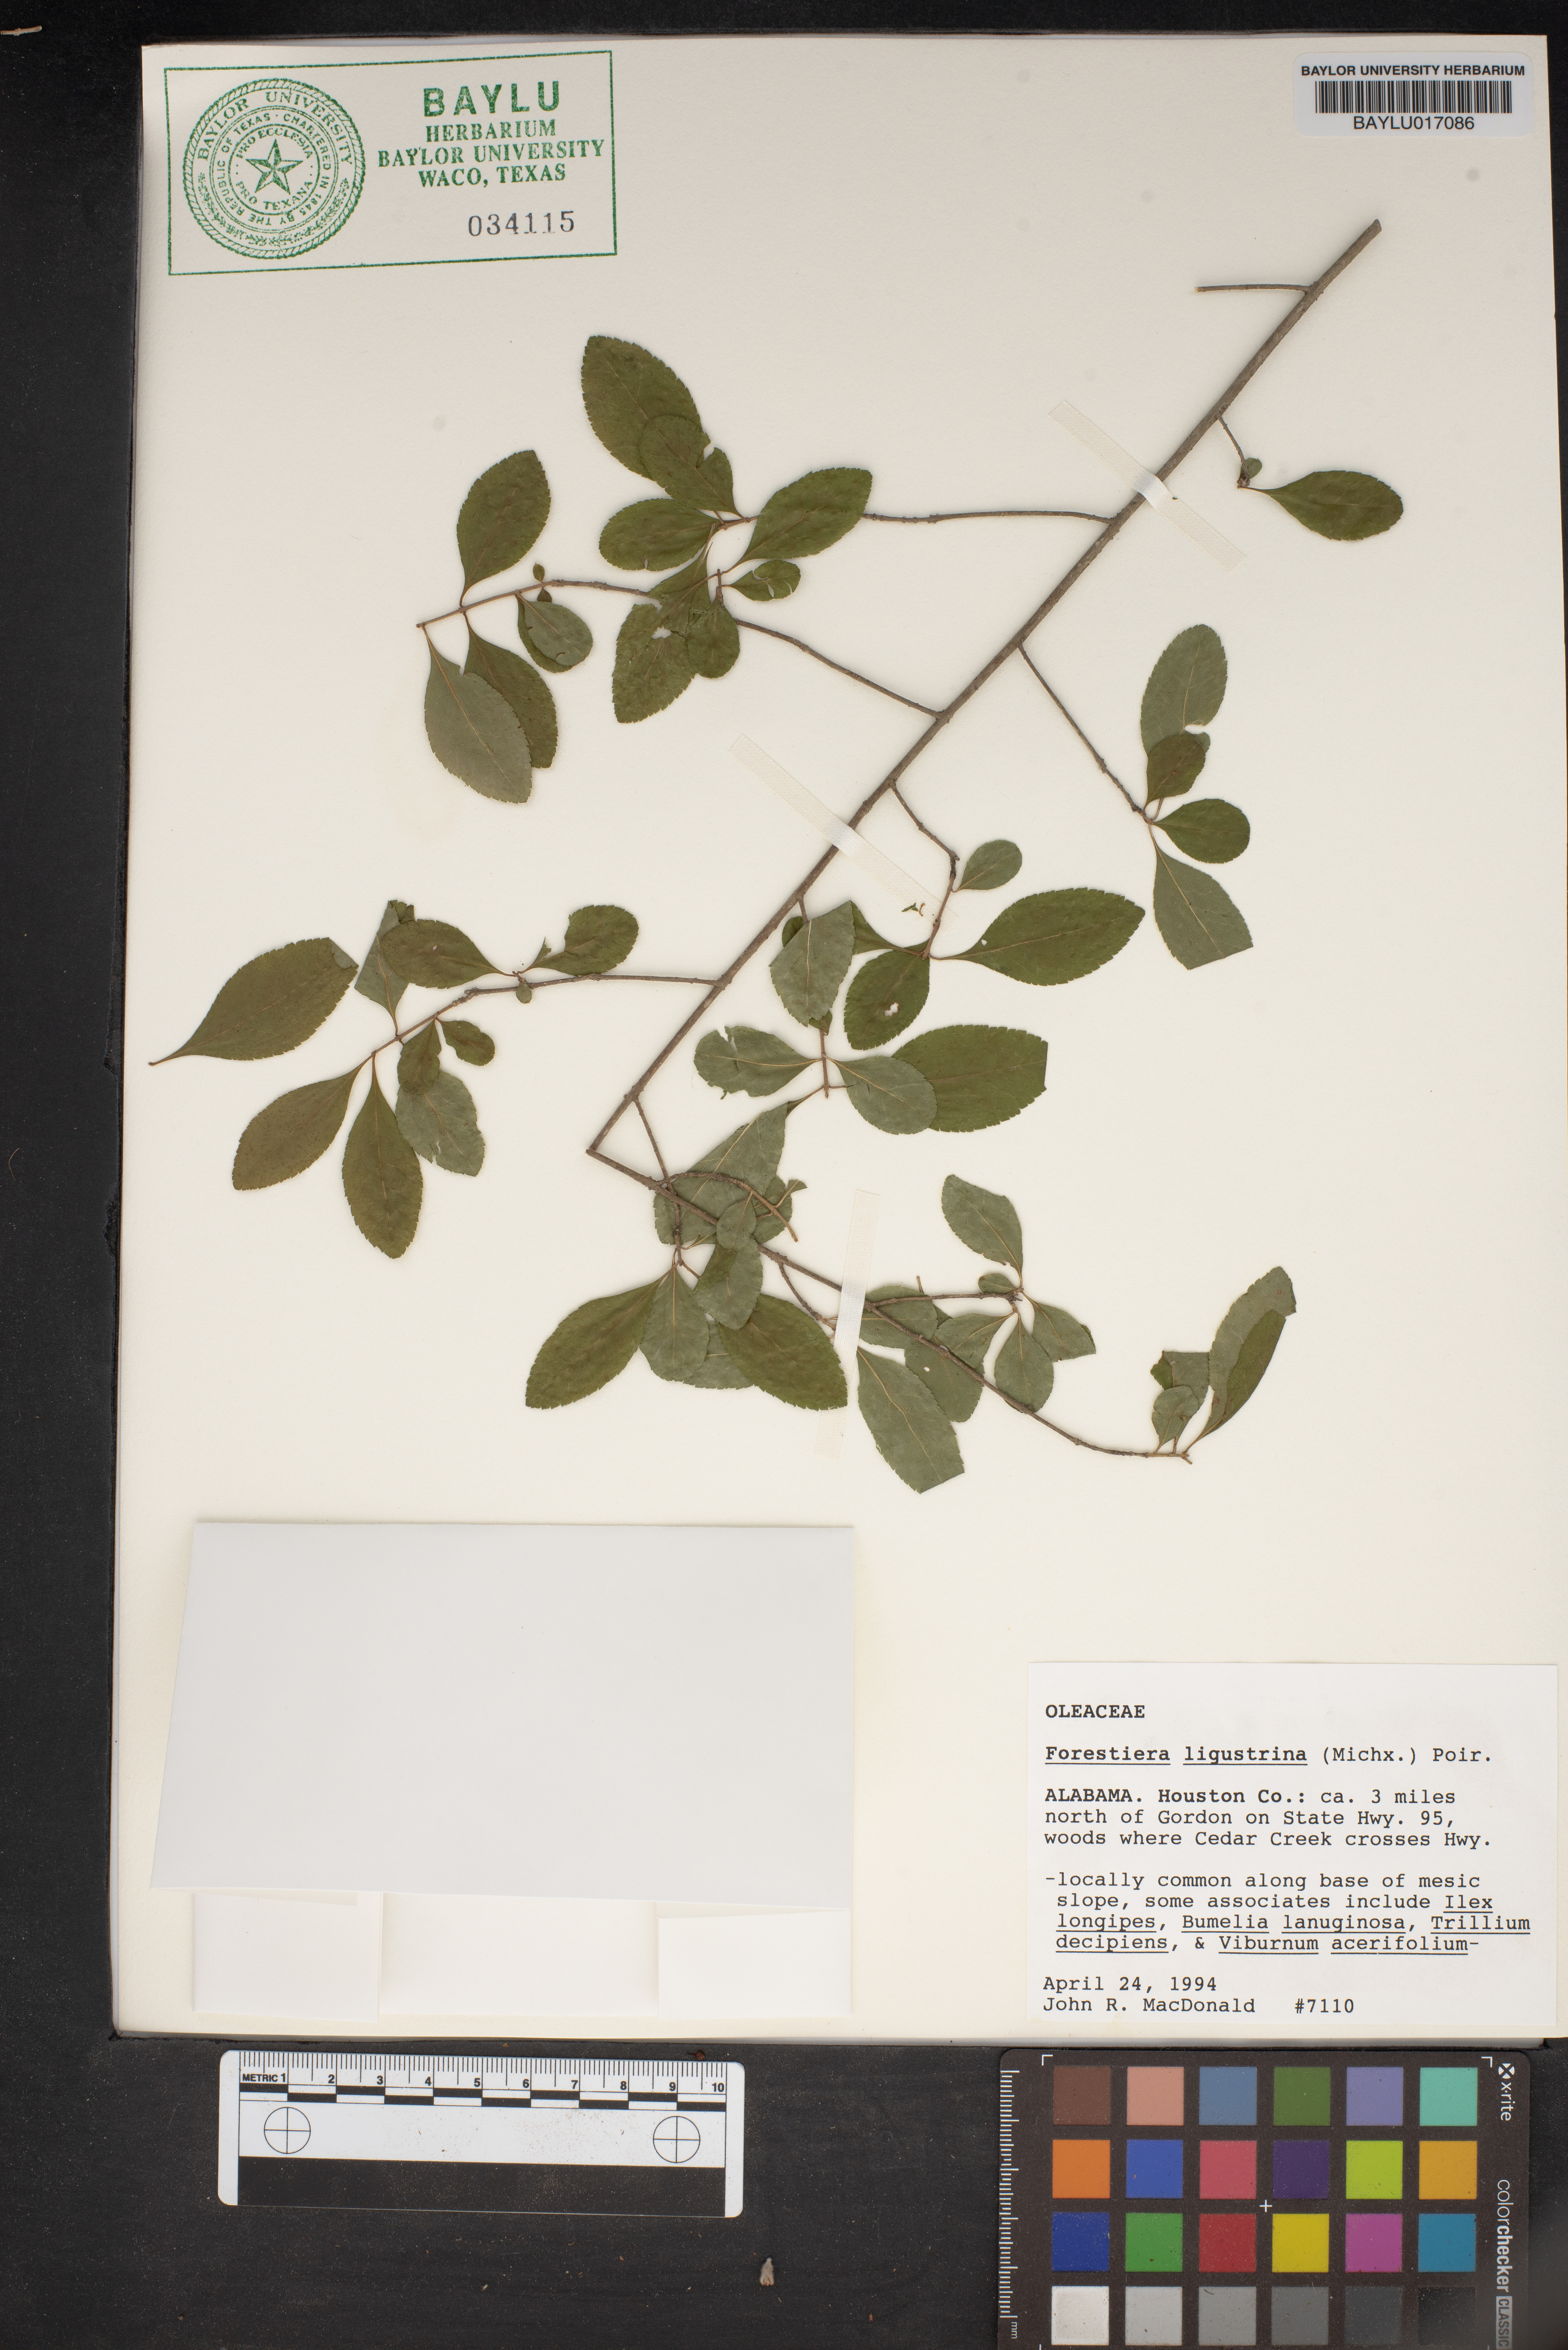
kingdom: Plantae
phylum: Tracheophyta
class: Magnoliopsida
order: Lamiales
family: Oleaceae
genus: Forestiera
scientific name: Forestiera ligustrina
